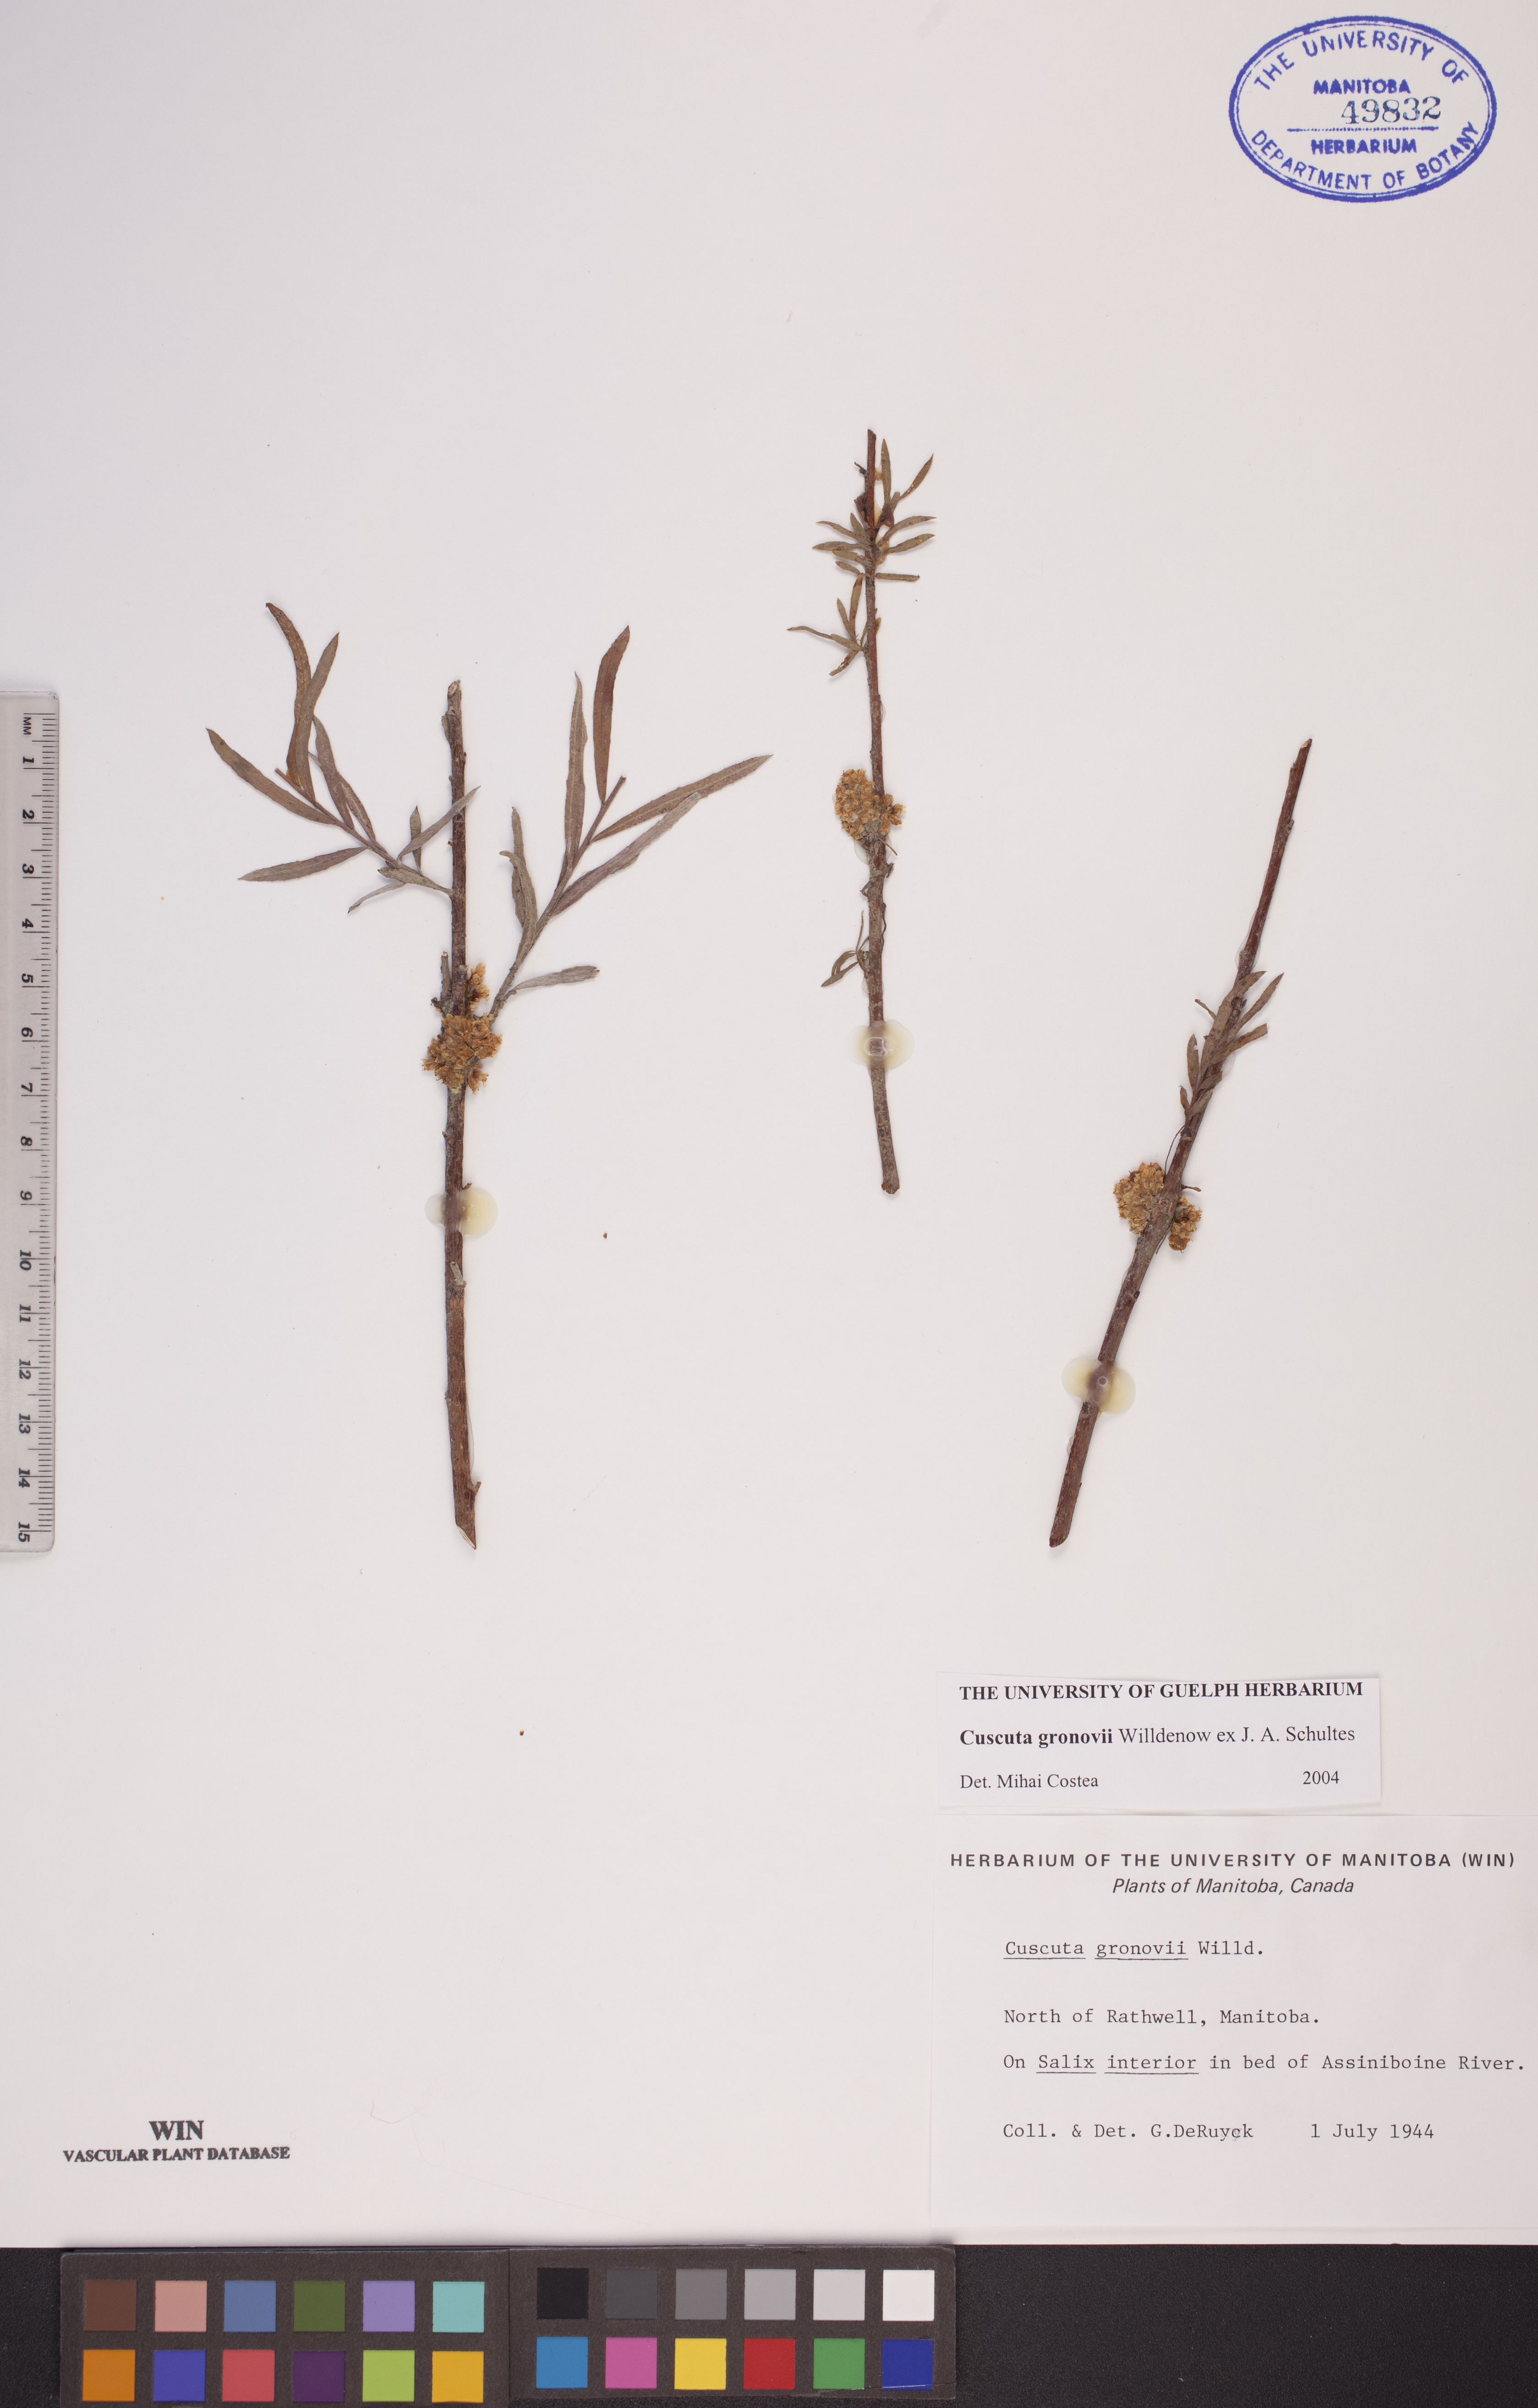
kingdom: Plantae
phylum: Tracheophyta
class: Magnoliopsida
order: Solanales
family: Convolvulaceae
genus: Cuscuta
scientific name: Cuscuta gronovii
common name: Common dodder
